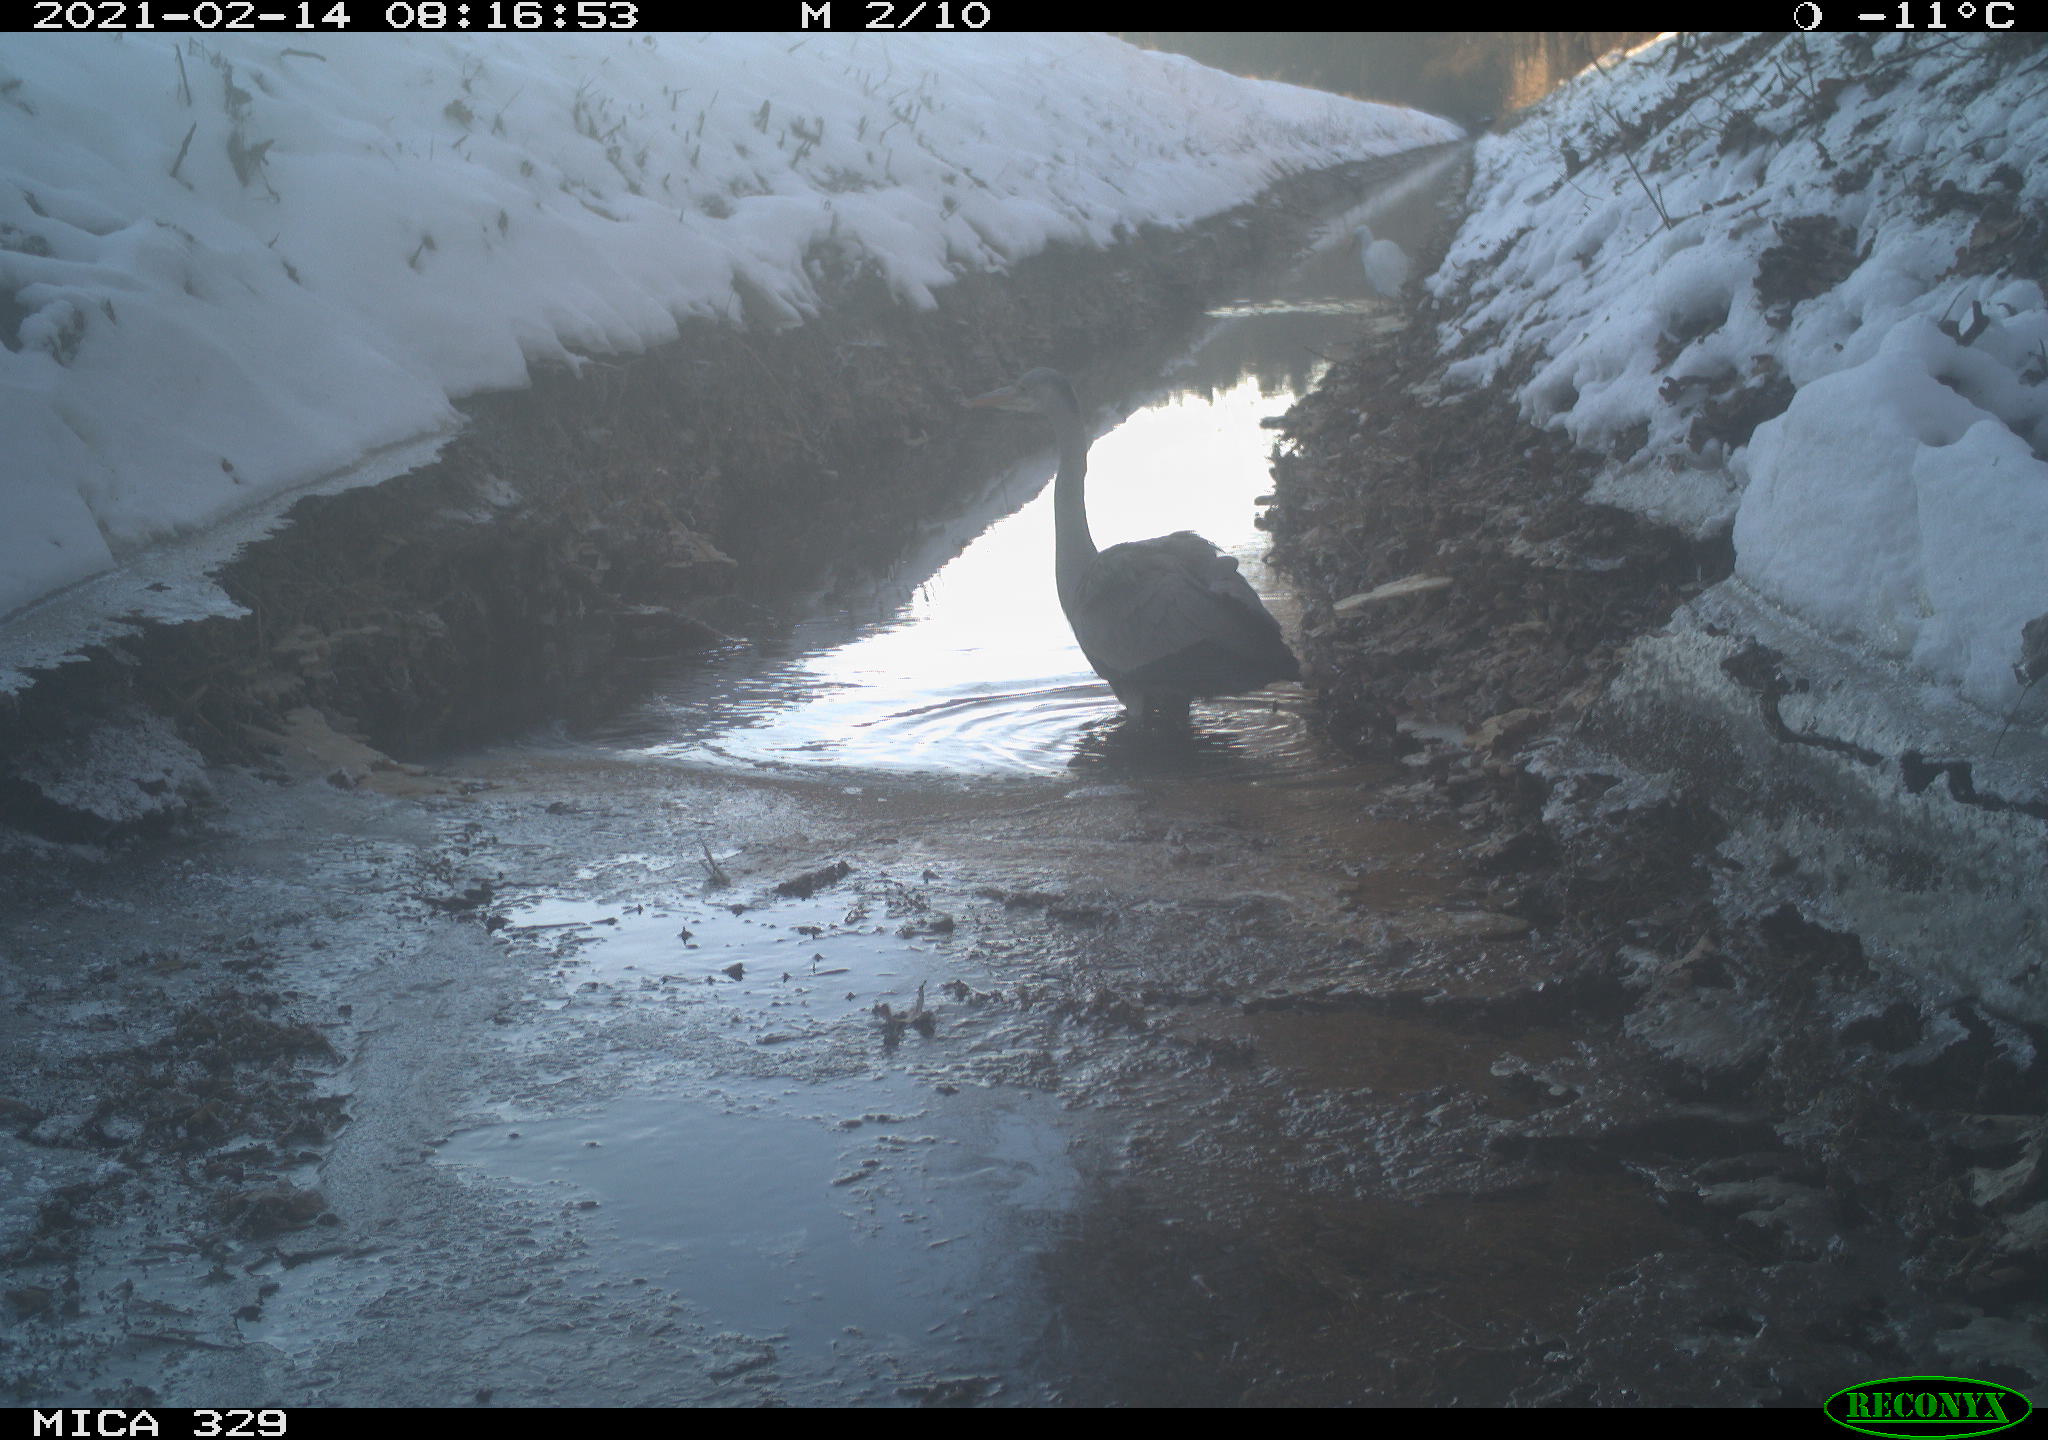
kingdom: Animalia
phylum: Chordata
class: Aves
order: Pelecaniformes
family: Ardeidae
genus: Ardea
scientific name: Ardea cinerea
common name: Grey heron
